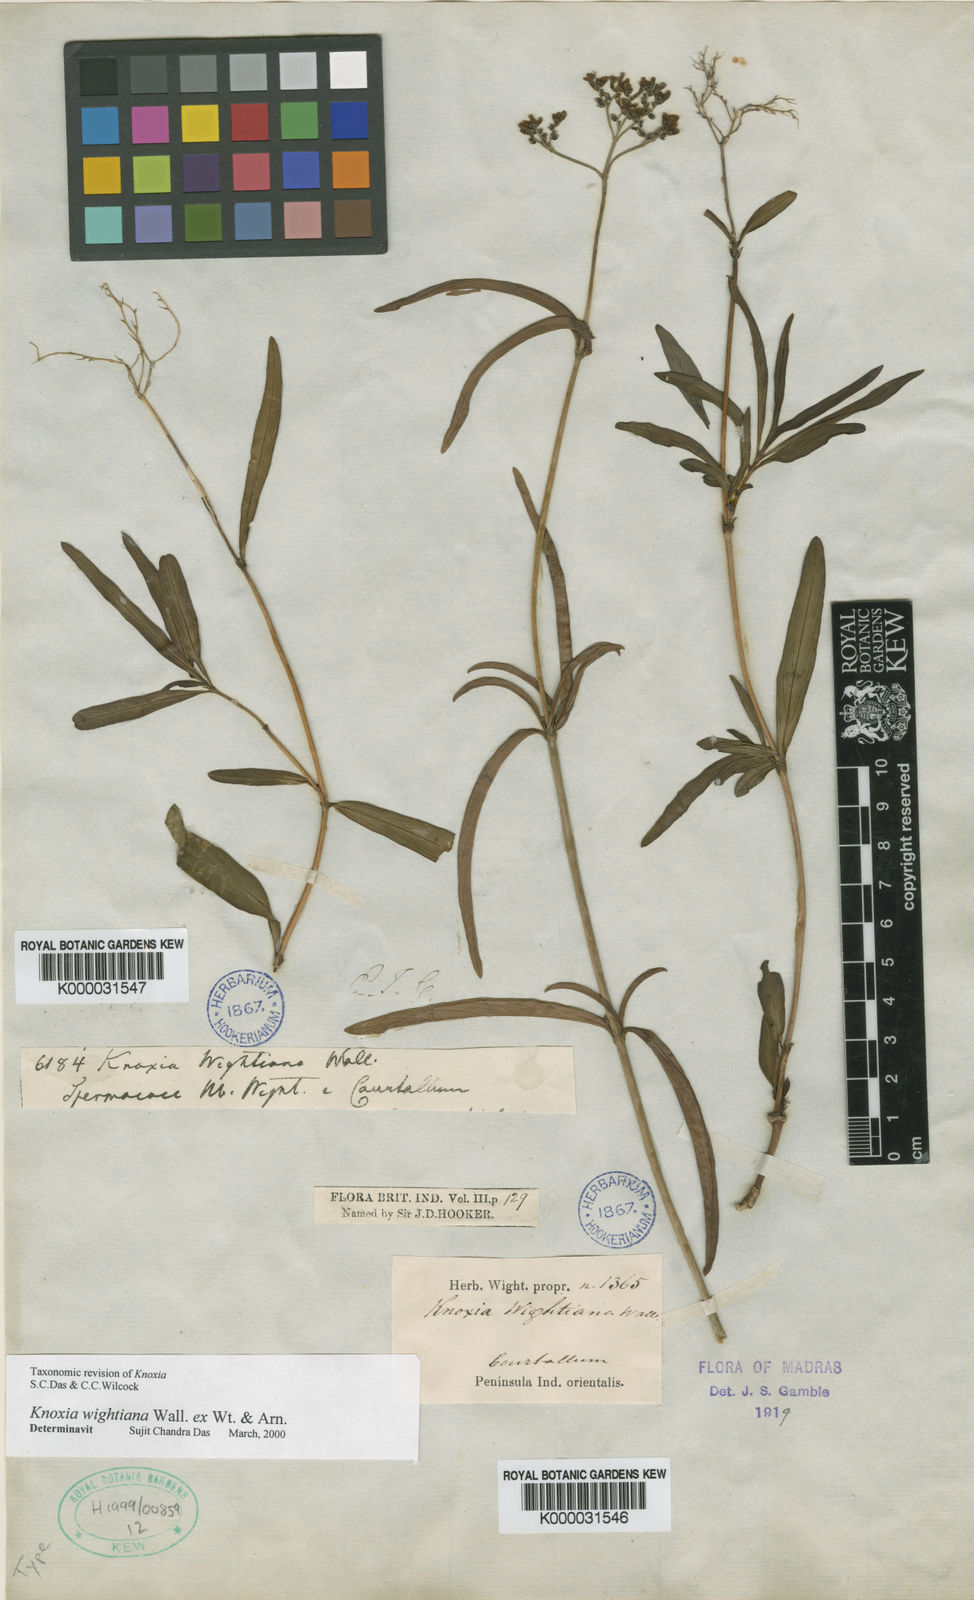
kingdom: Plantae
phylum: Tracheophyta
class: Magnoliopsida
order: Gentianales
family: Rubiaceae
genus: Knoxia
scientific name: Knoxia
